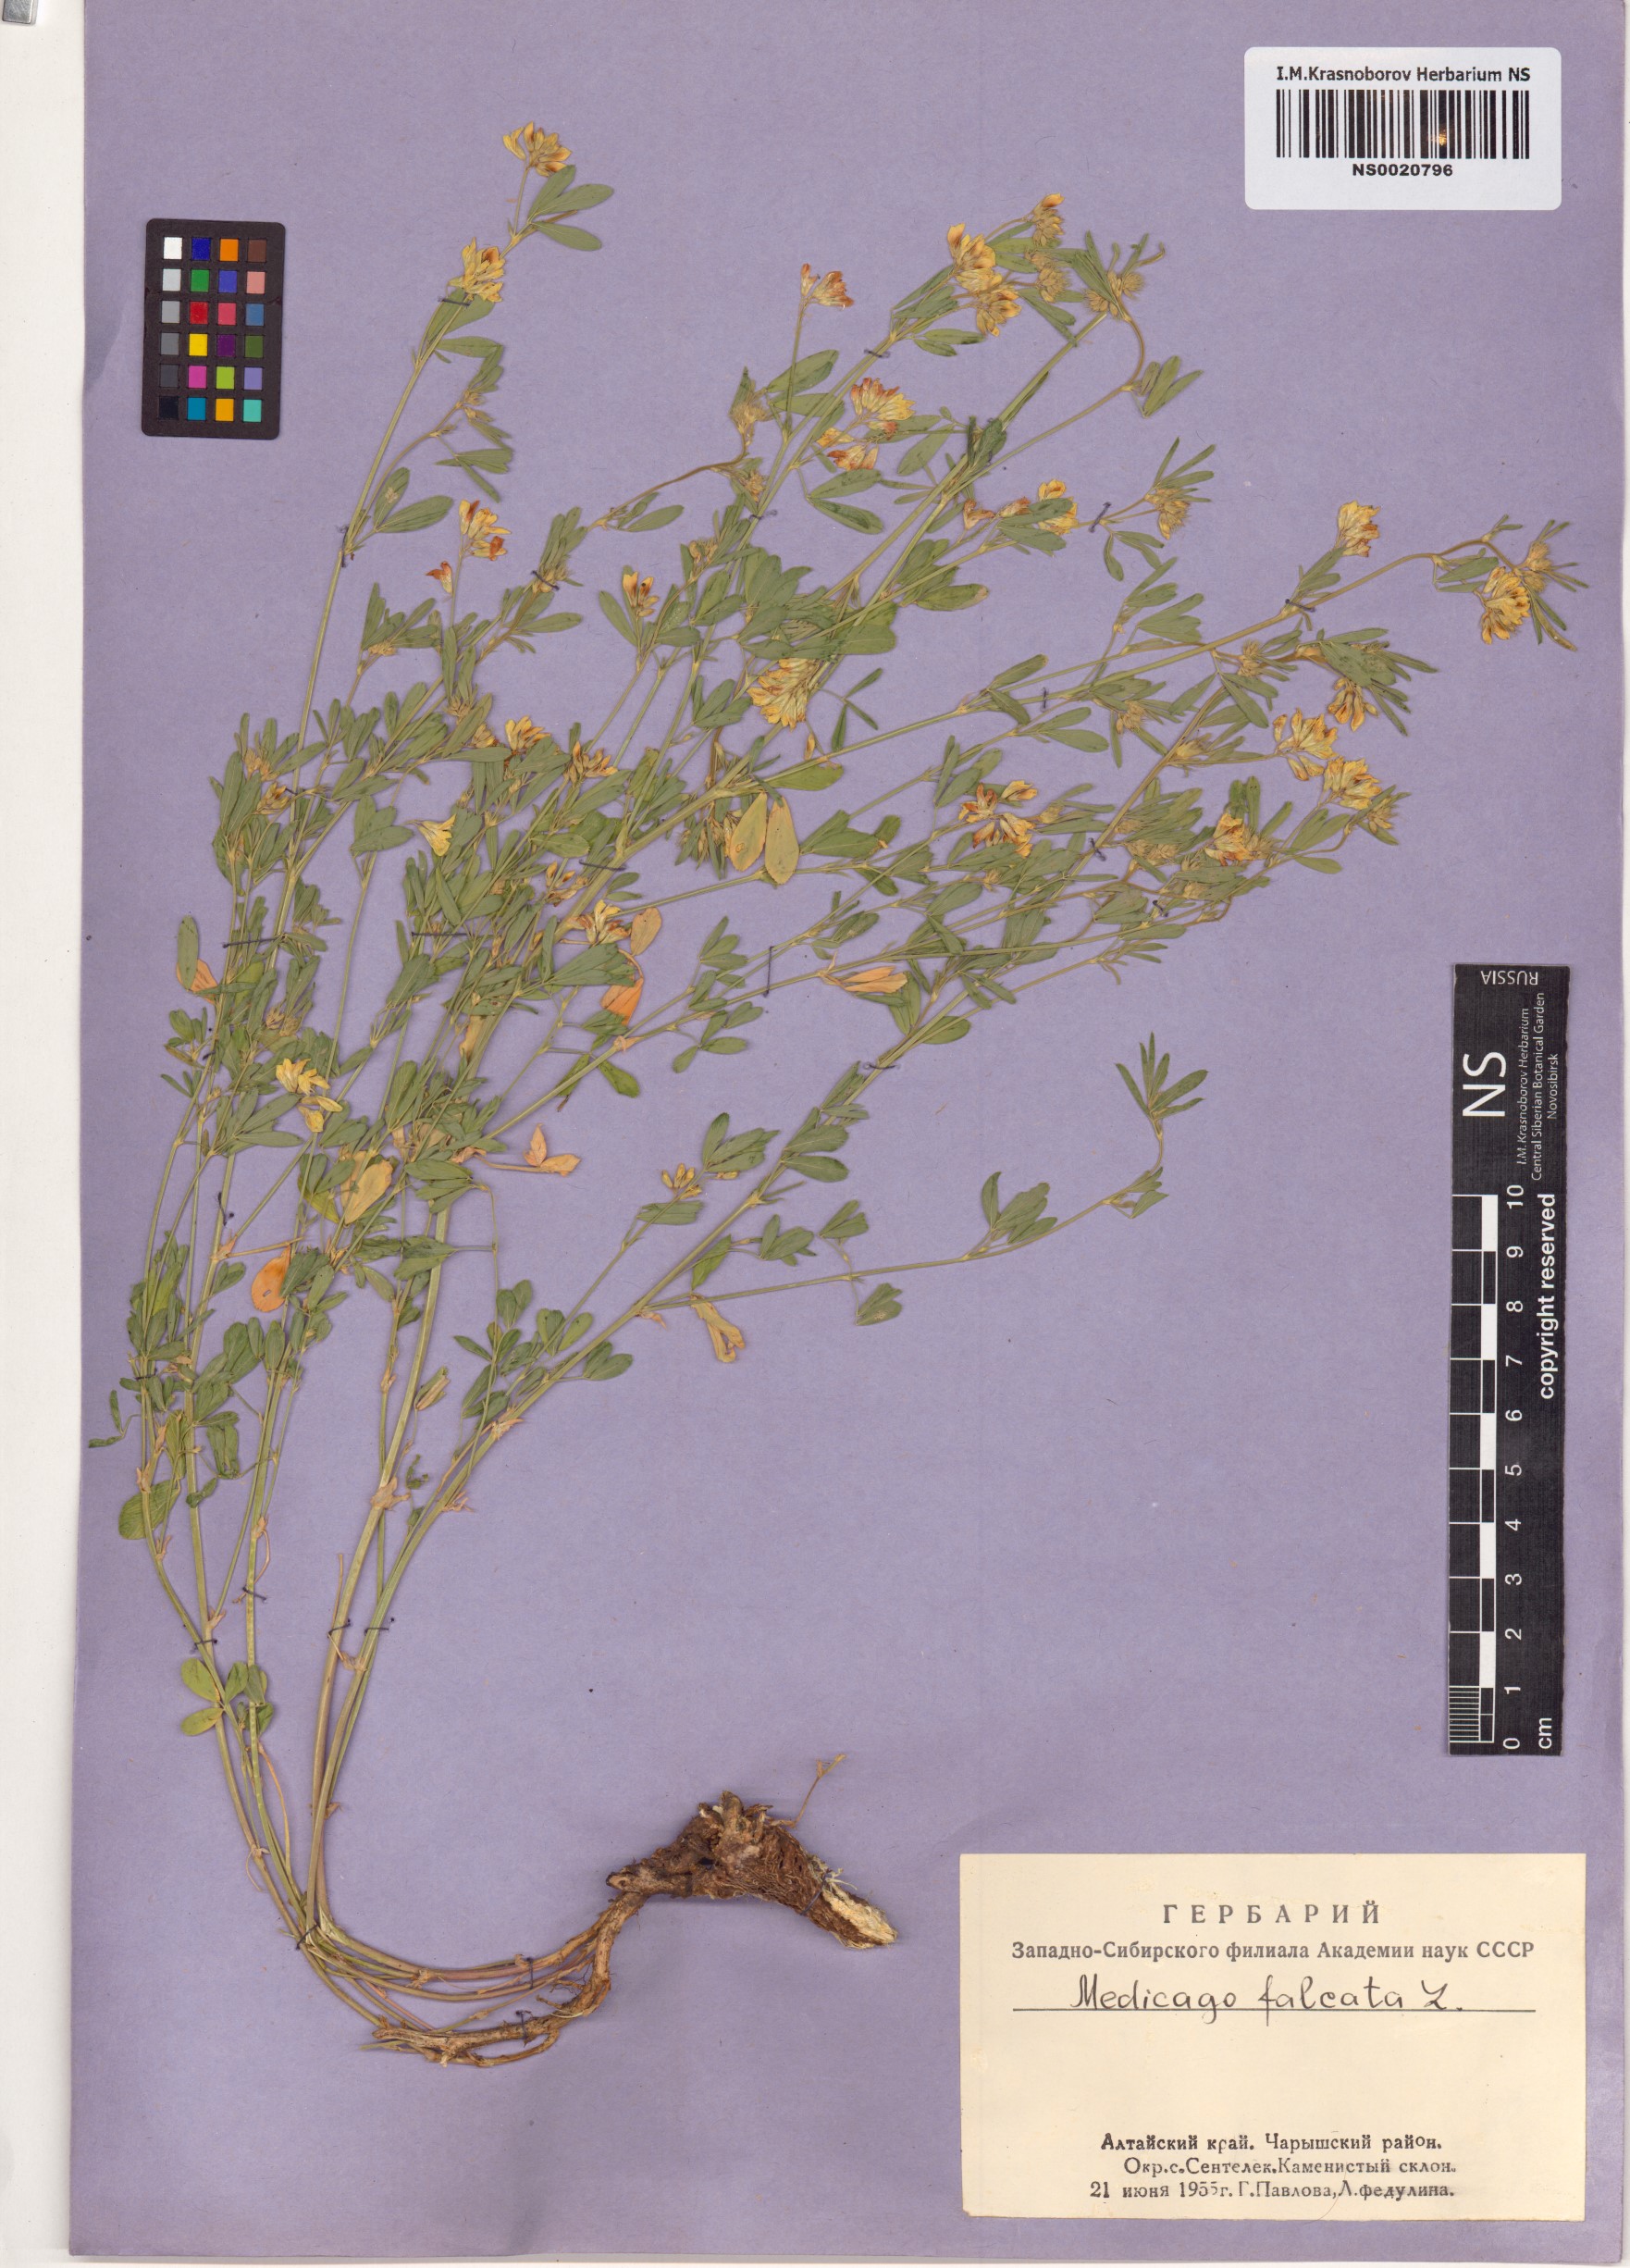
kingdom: Plantae
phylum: Tracheophyta
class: Magnoliopsida
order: Fabales
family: Fabaceae
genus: Medicago
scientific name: Medicago falcata
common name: Sickle medick
